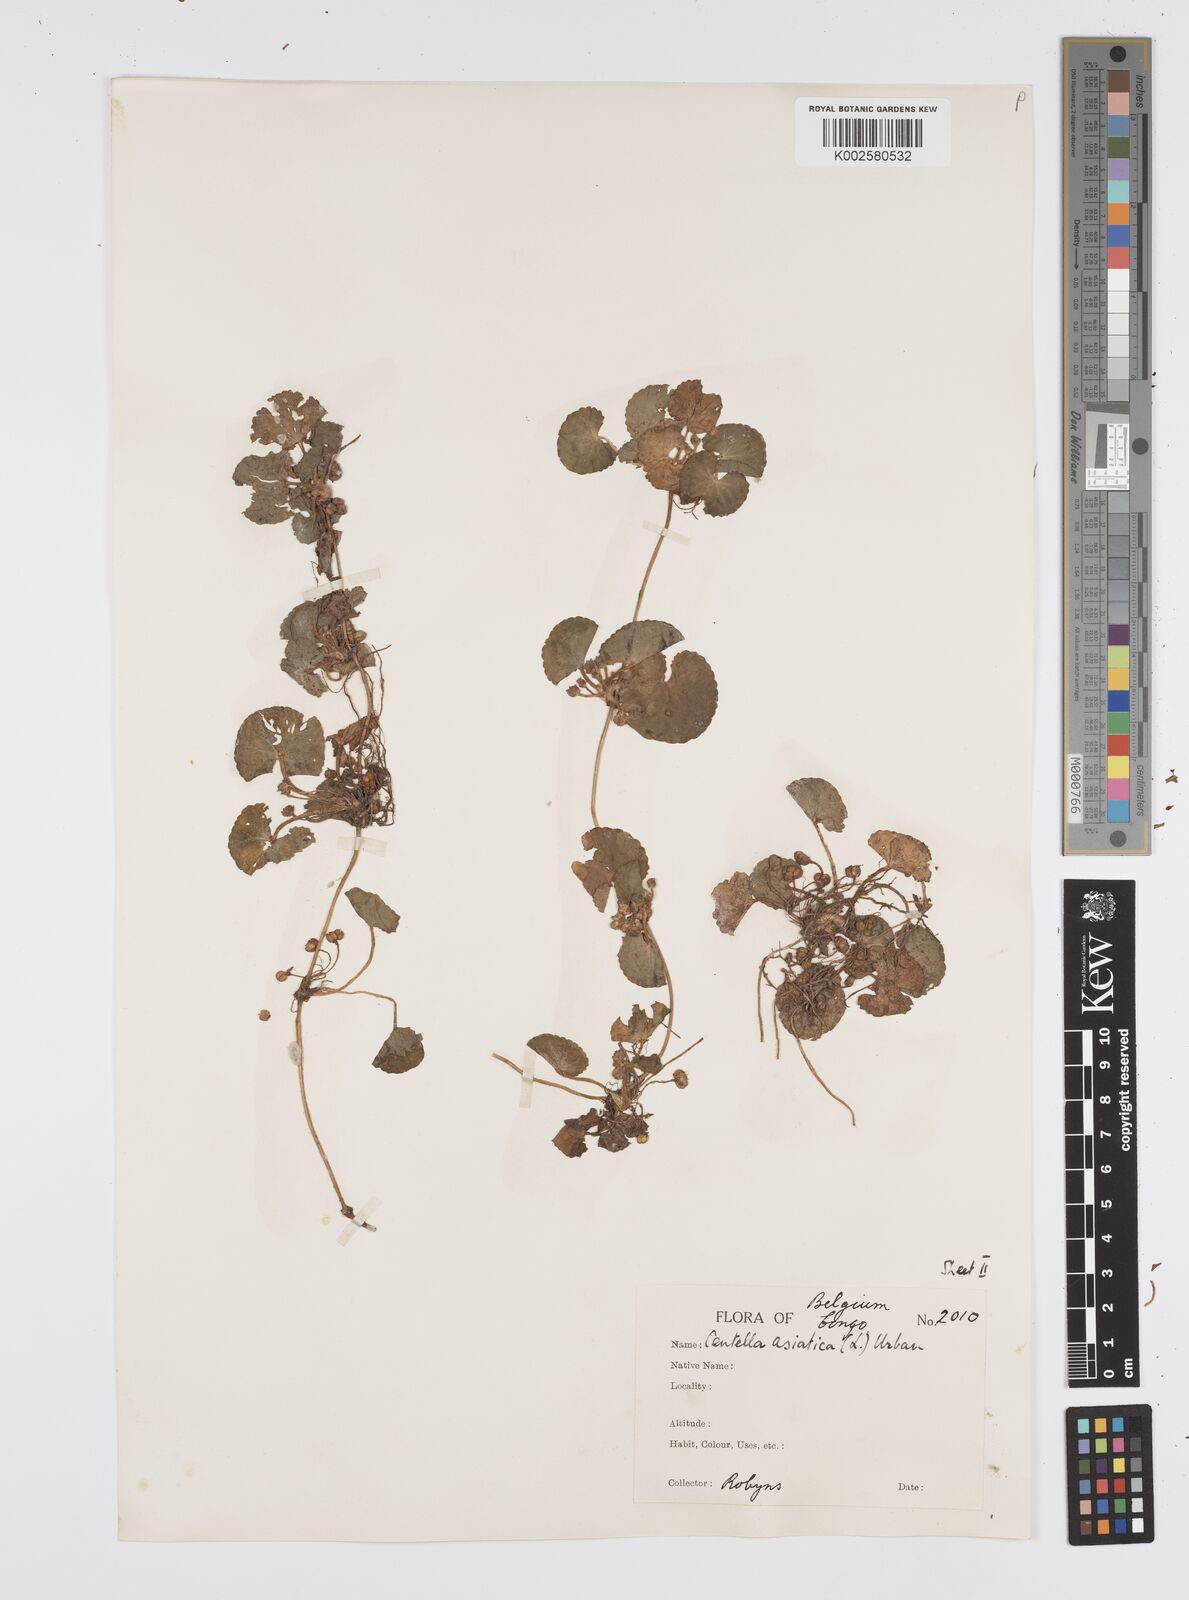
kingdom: Plantae
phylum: Tracheophyta
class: Magnoliopsida
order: Apiales
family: Apiaceae
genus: Centella
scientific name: Centella asiatica
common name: Spadeleaf
